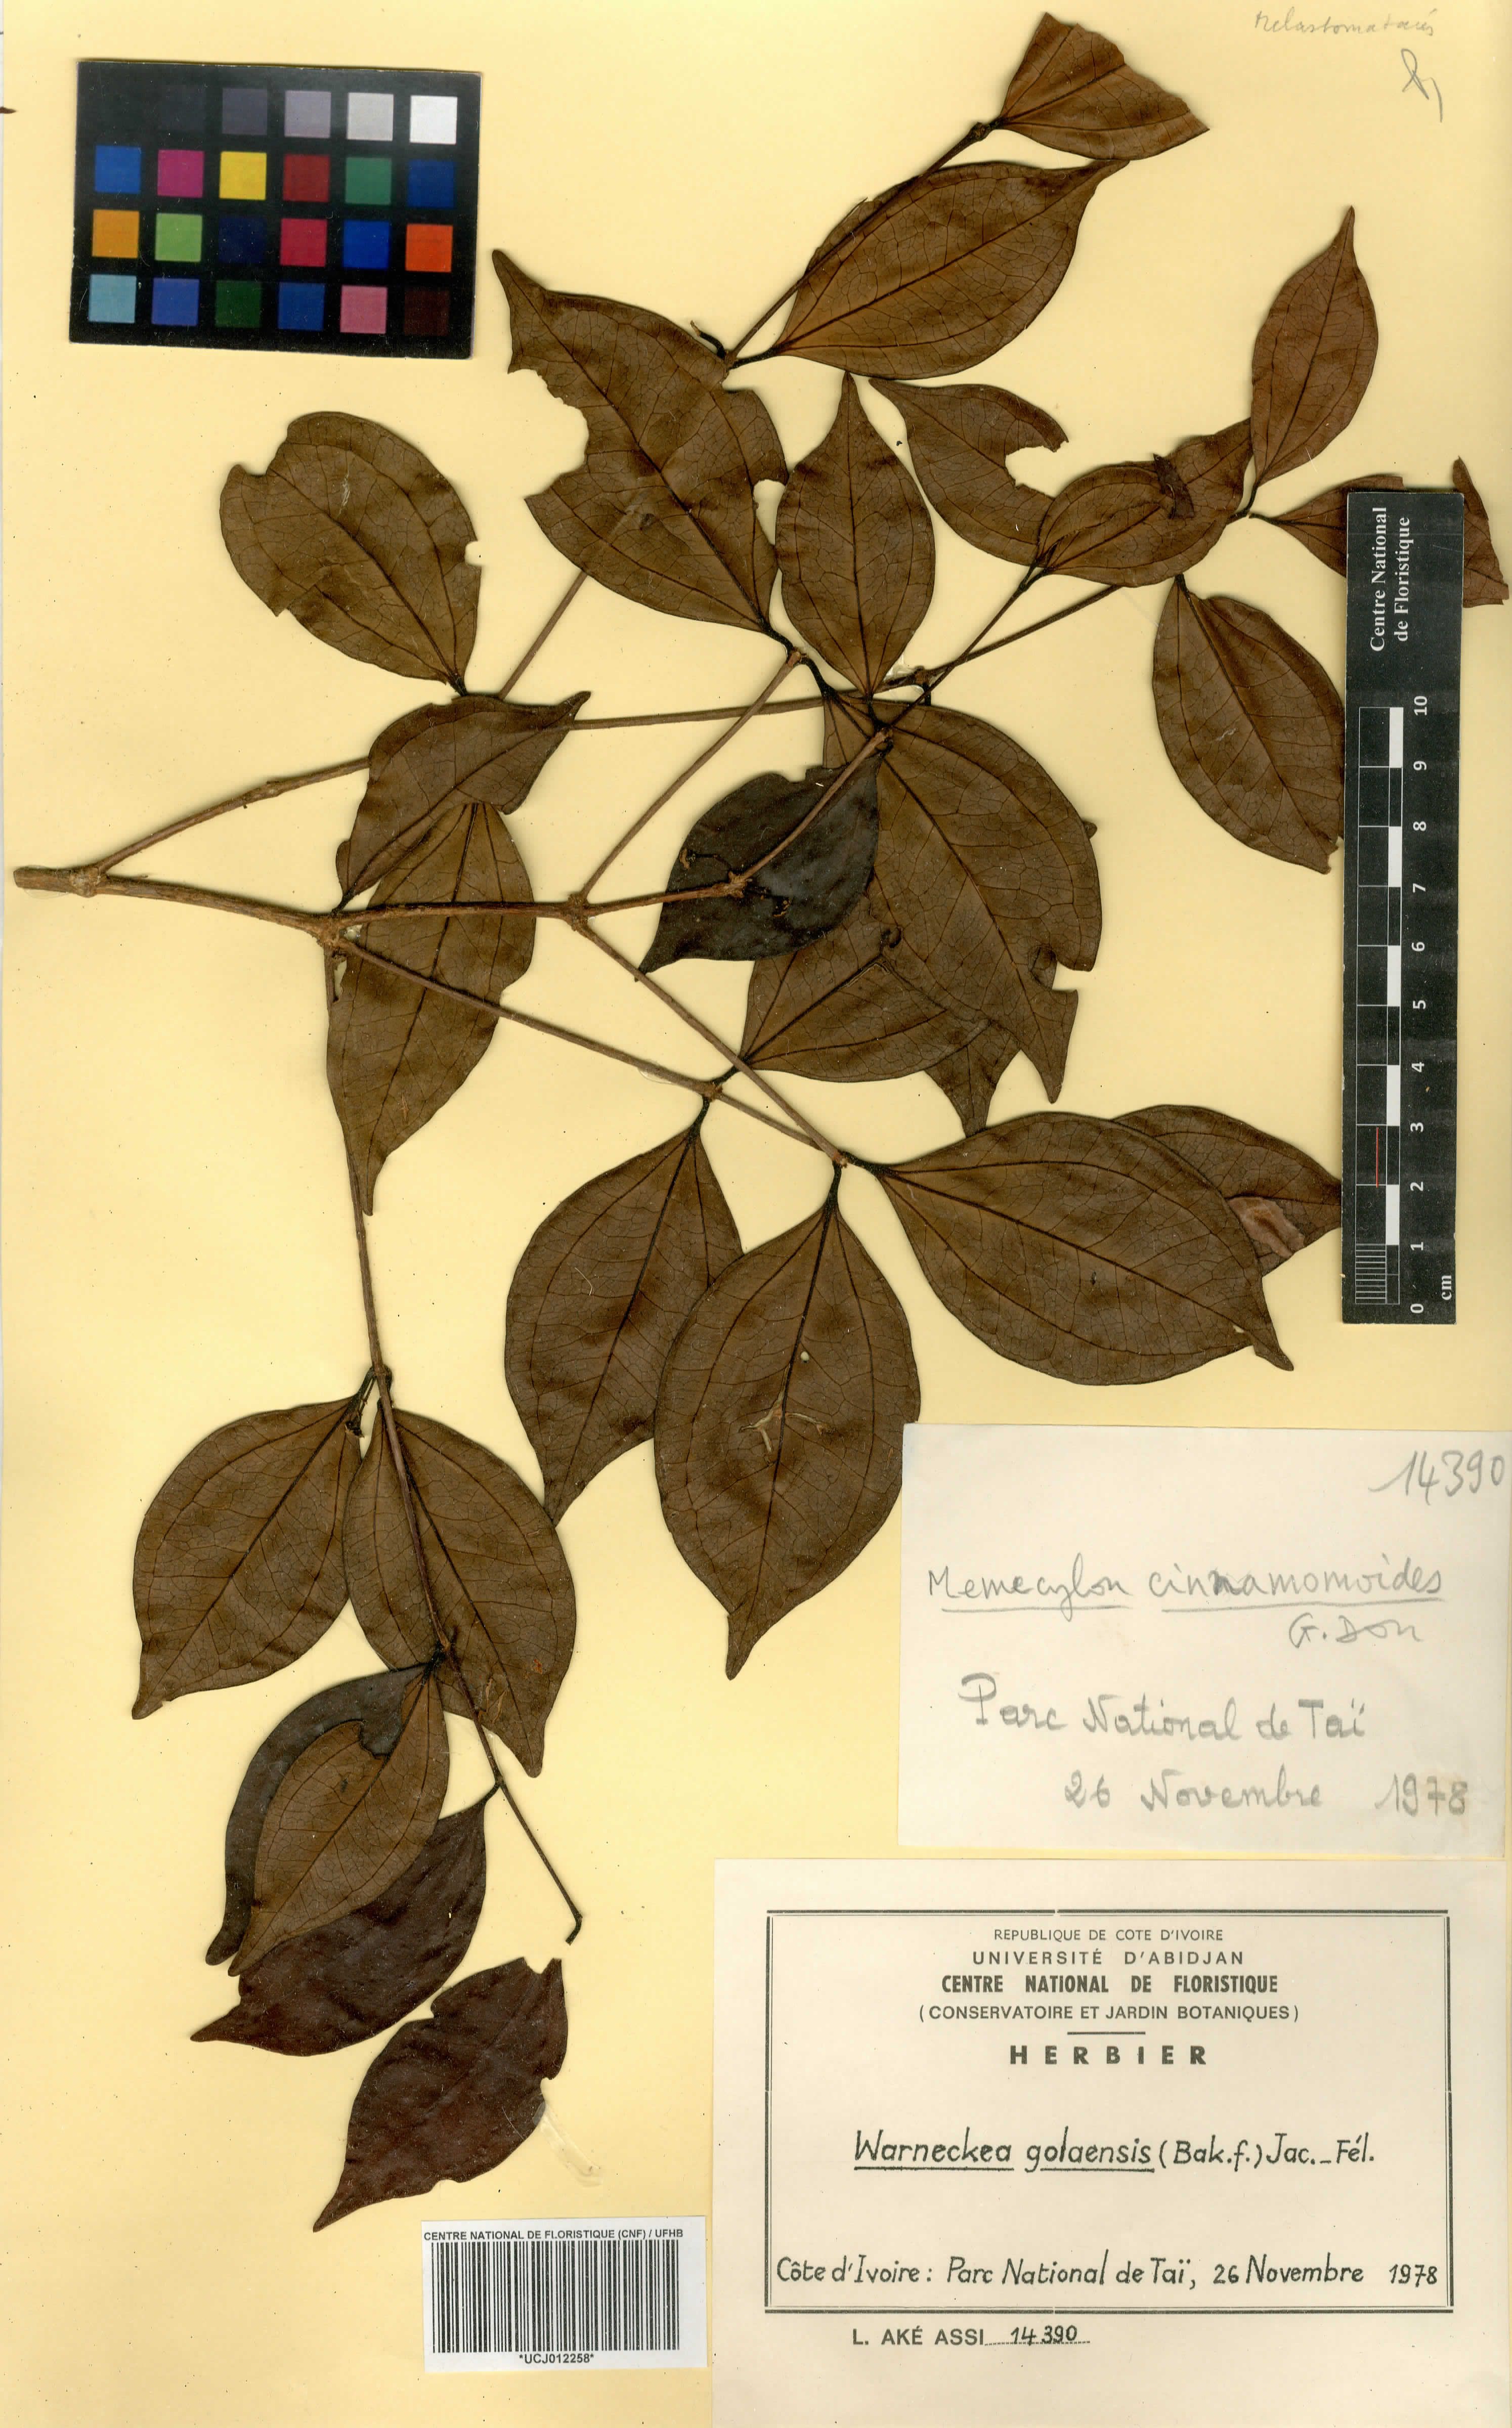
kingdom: Plantae
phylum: Tracheophyta
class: Magnoliopsida
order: Myrtales
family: Melastomataceae
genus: Warneckea
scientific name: Warneckea golaensis
